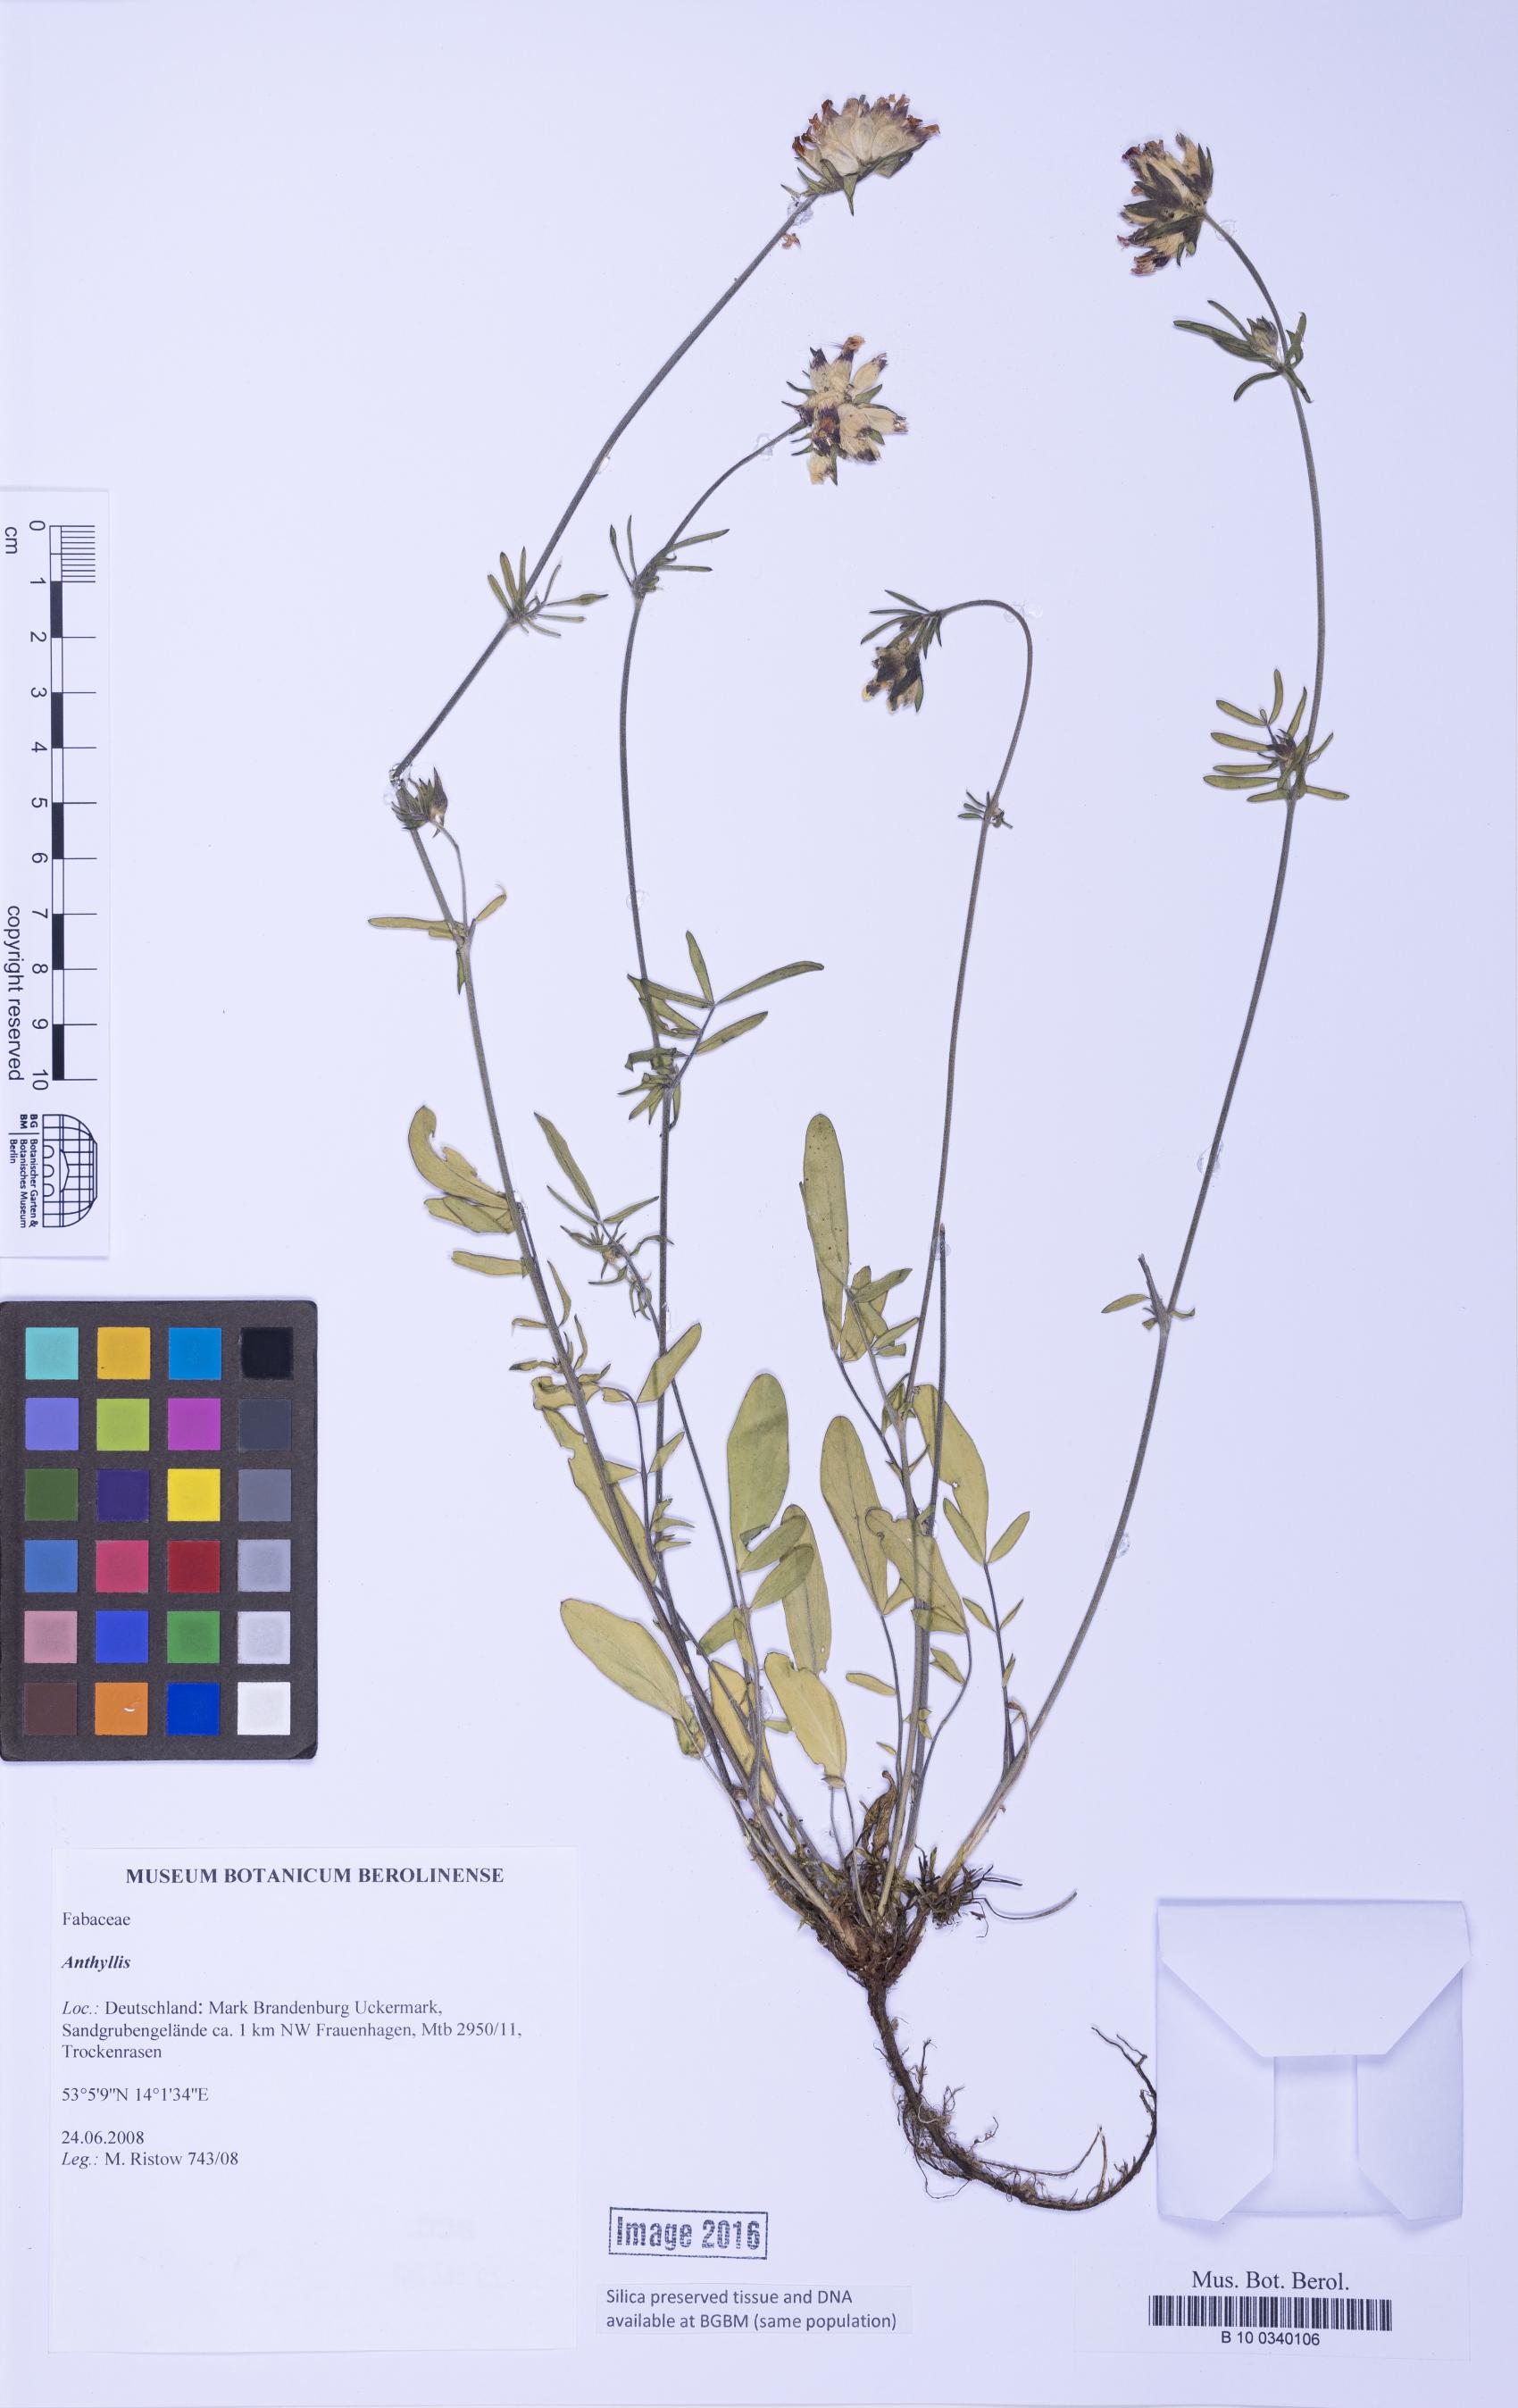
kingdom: Plantae
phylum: Tracheophyta
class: Magnoliopsida
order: Fabales
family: Fabaceae
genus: Anthyllis
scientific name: Anthyllis
